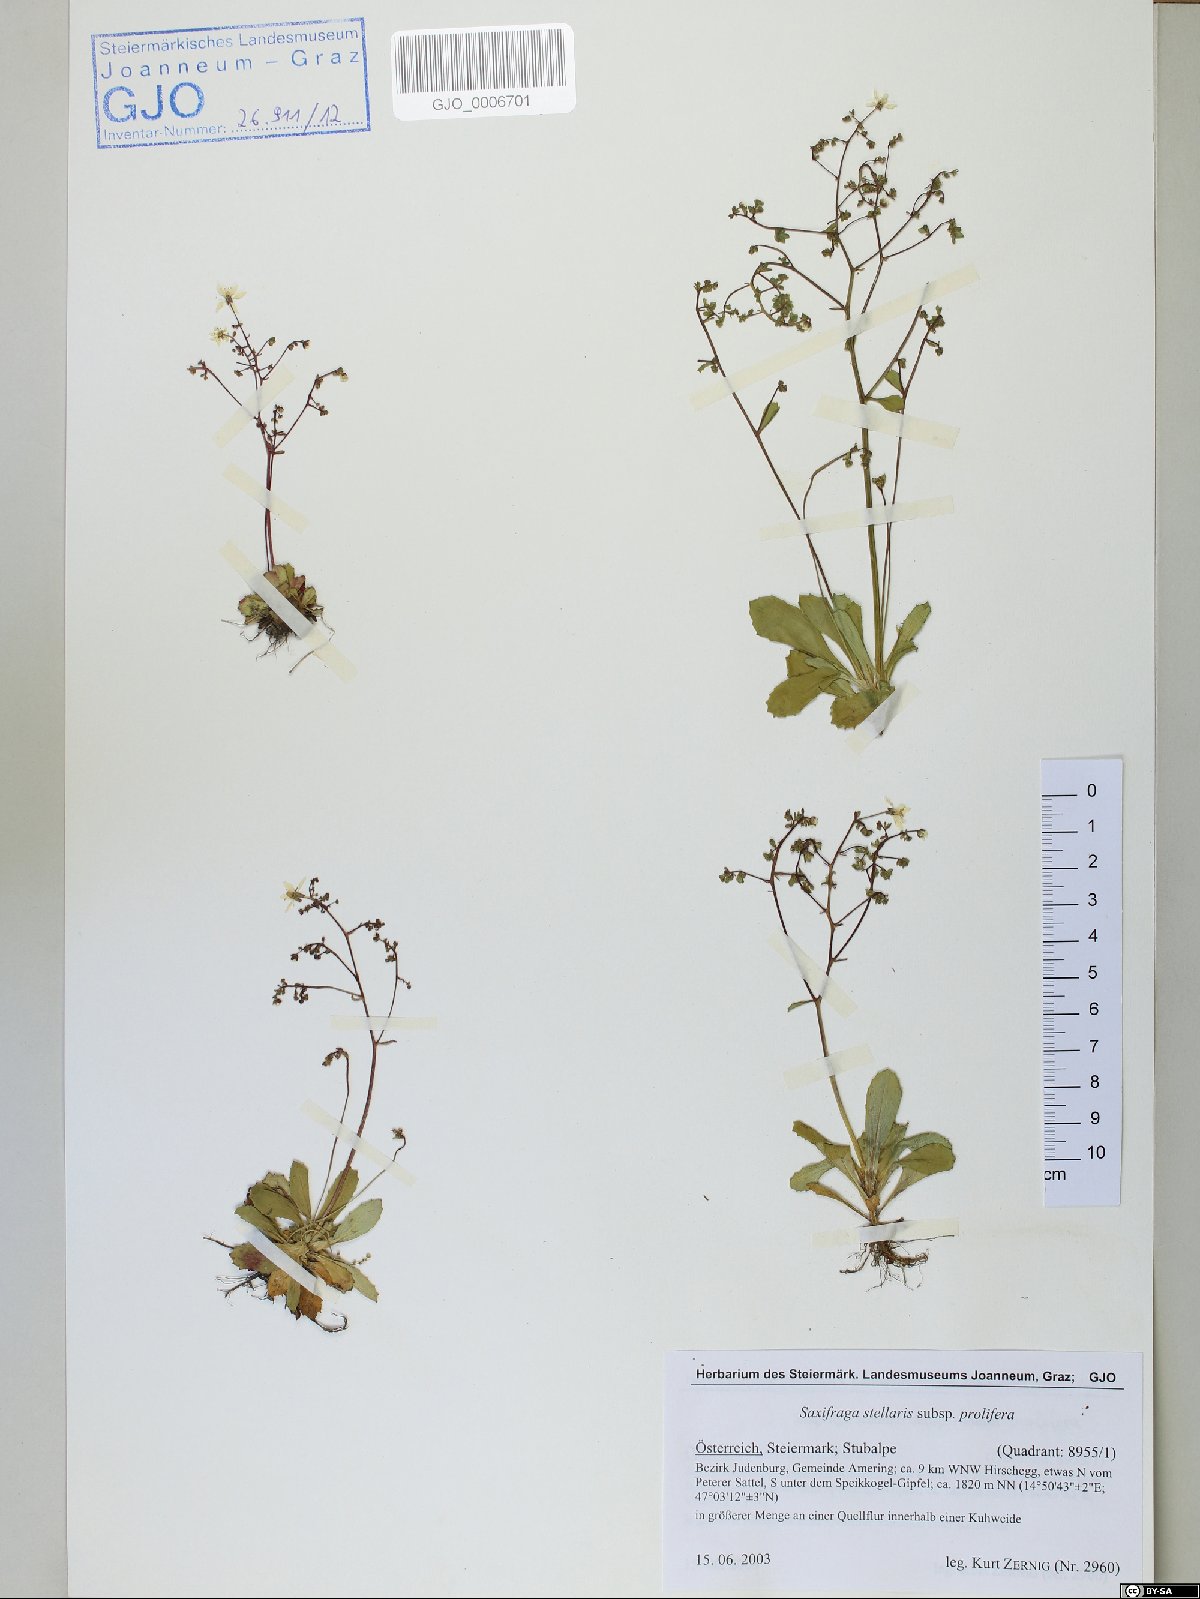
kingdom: Plantae
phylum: Tracheophyta
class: Magnoliopsida
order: Saxifragales
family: Saxifragaceae
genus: Micranthes
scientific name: Micranthes stellaris
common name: Starry saxifrage
